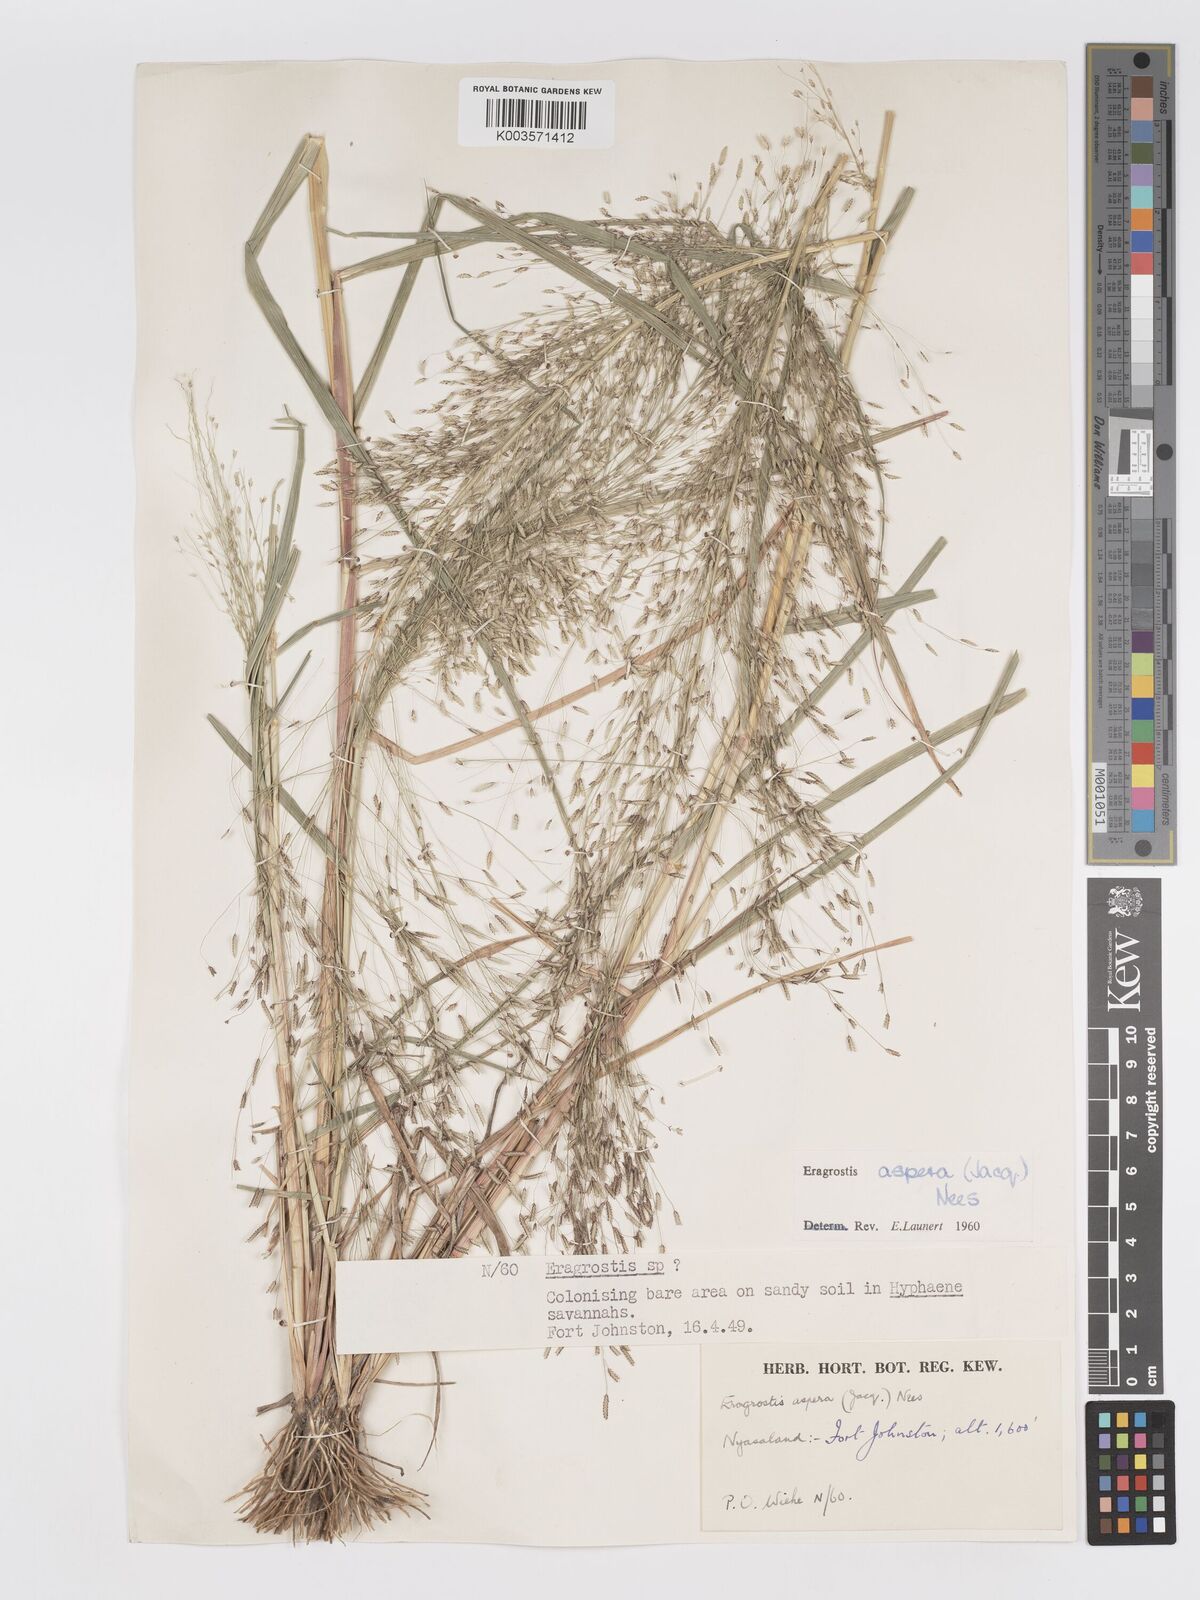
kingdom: Plantae
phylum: Tracheophyta
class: Liliopsida
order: Poales
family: Poaceae
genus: Eragrostis
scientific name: Eragrostis aspera
